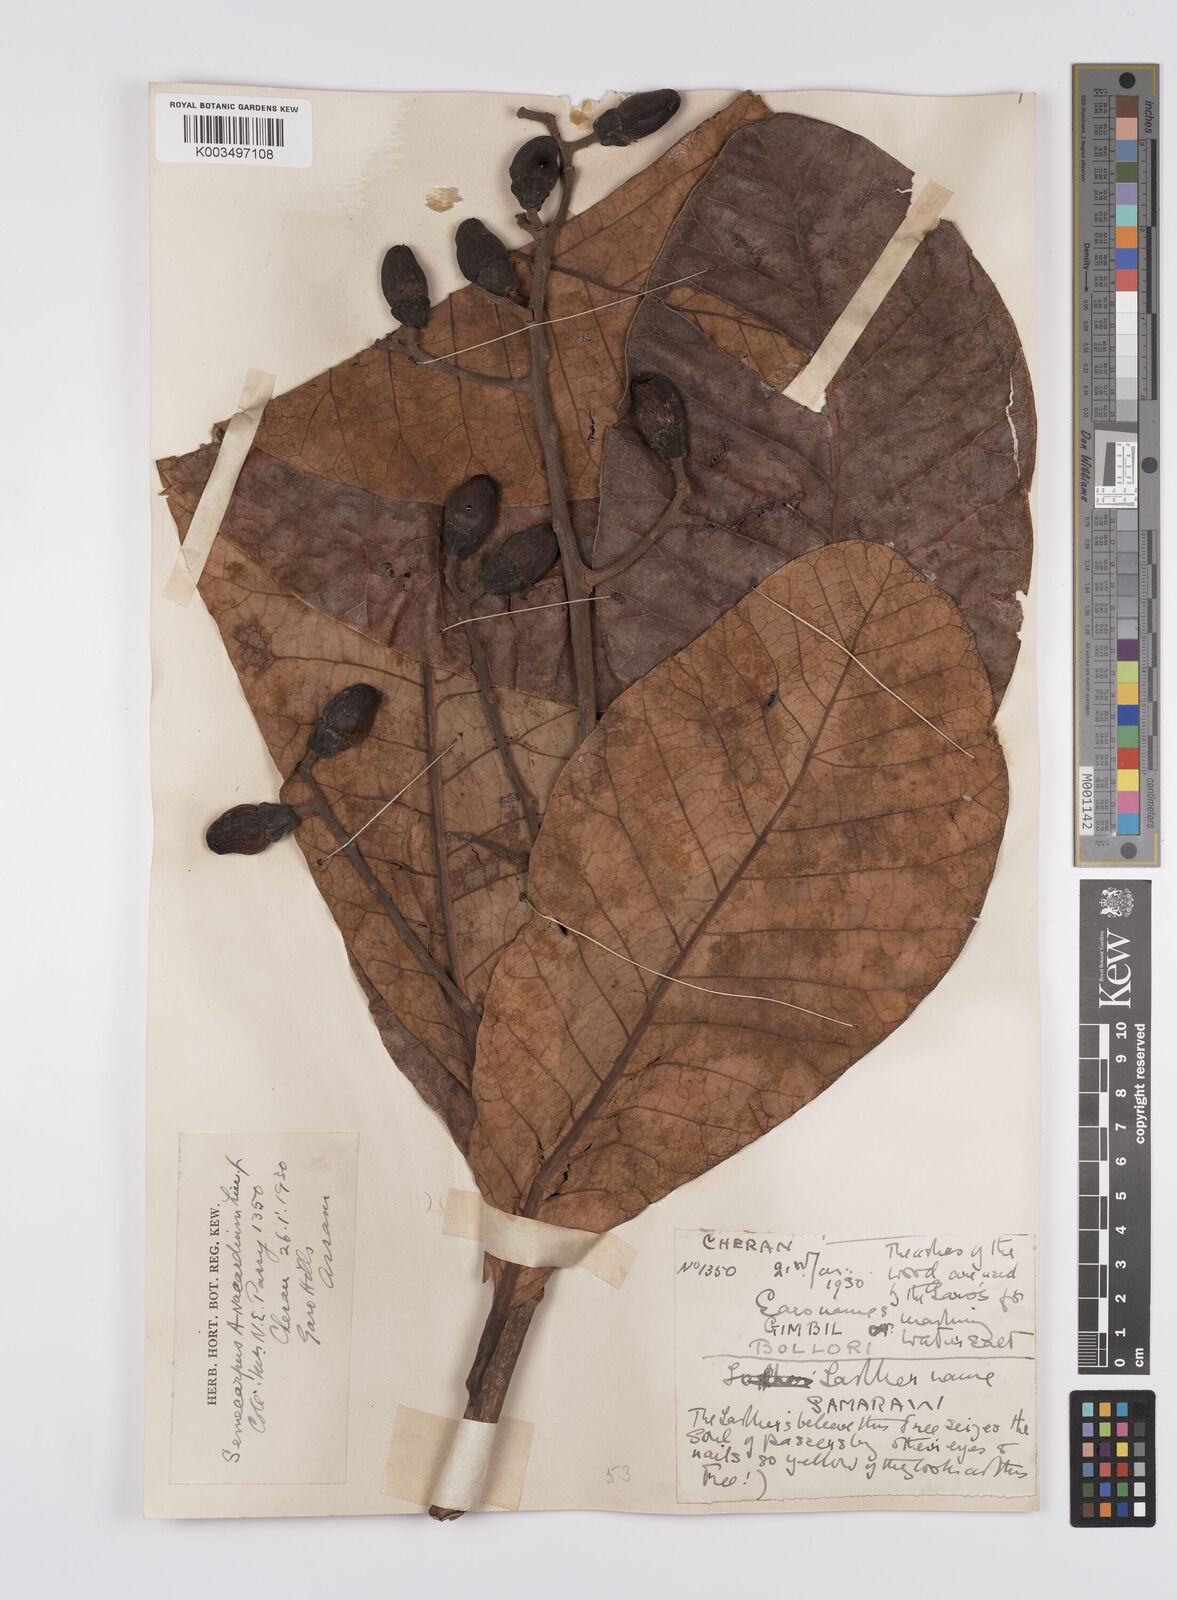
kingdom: Plantae
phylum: Tracheophyta
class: Magnoliopsida
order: Sapindales
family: Anacardiaceae
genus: Semecarpus
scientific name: Semecarpus anacardium
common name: Marking nut-tree
